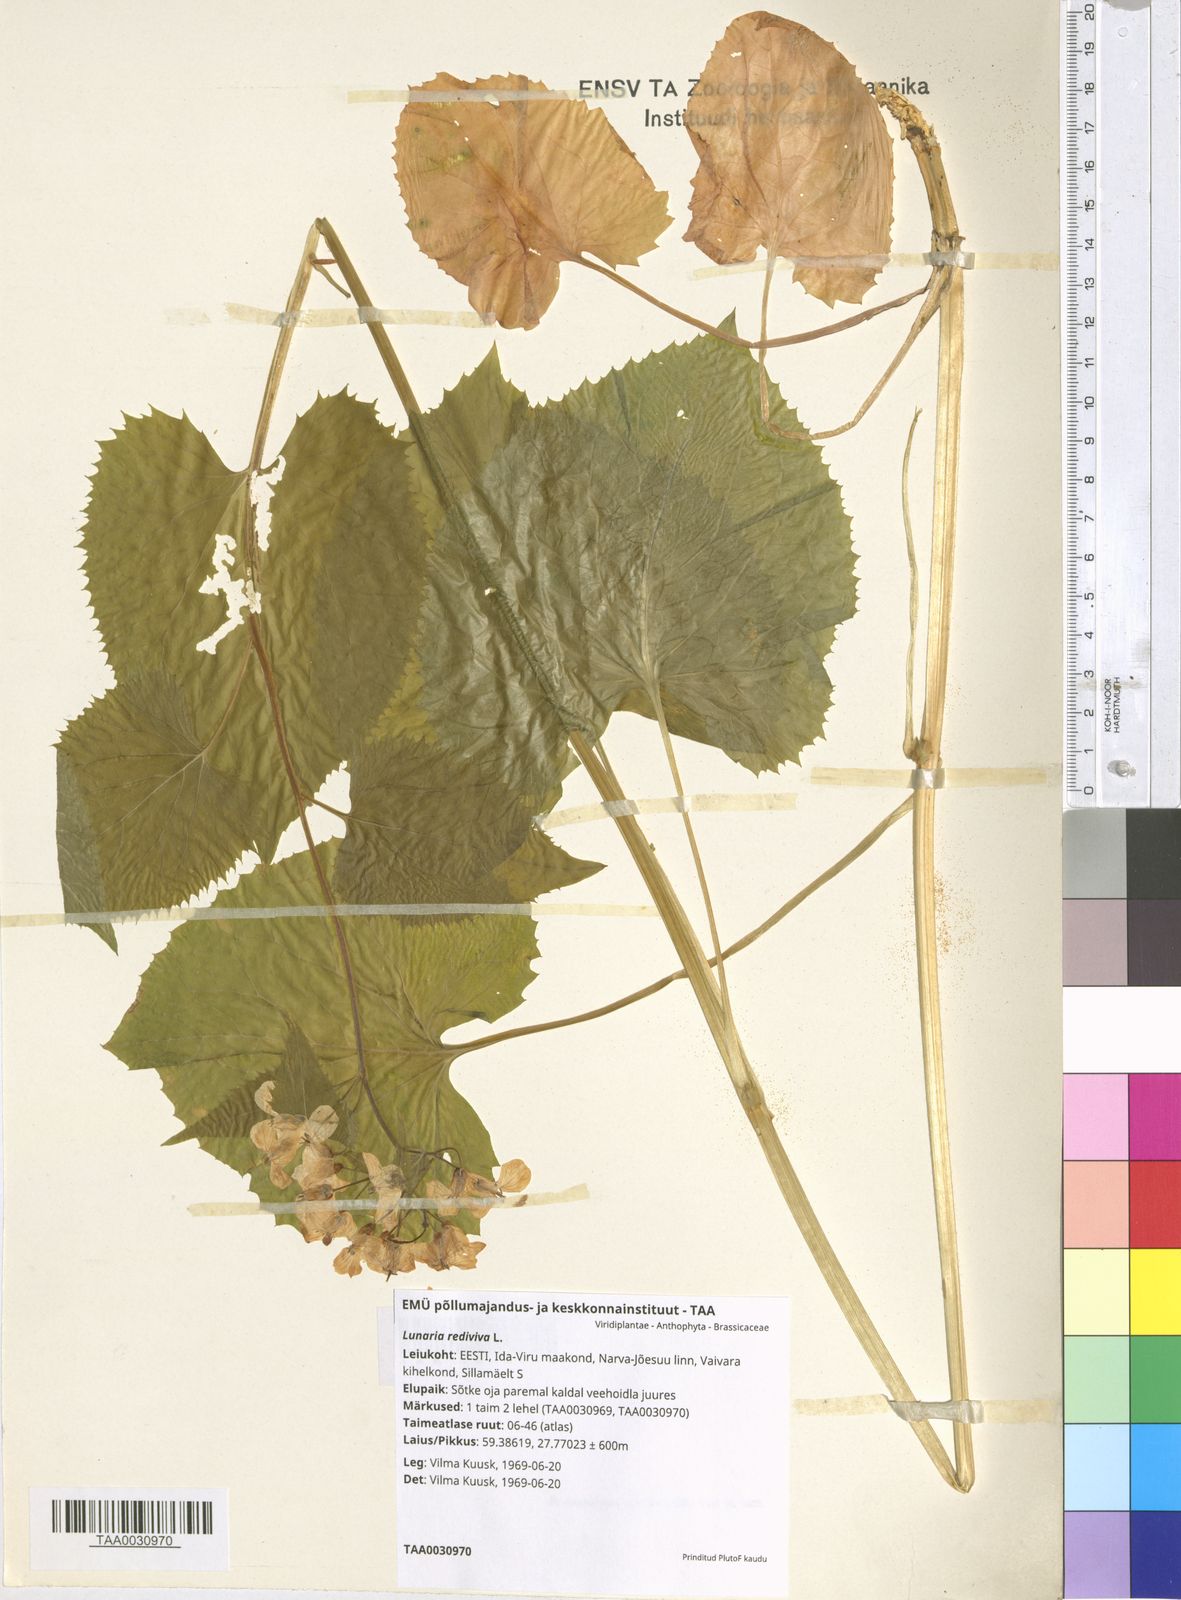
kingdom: Plantae
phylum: Tracheophyta
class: Magnoliopsida
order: Brassicales
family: Brassicaceae
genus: Lunaria
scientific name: Lunaria rediviva
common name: Perennial honesty
